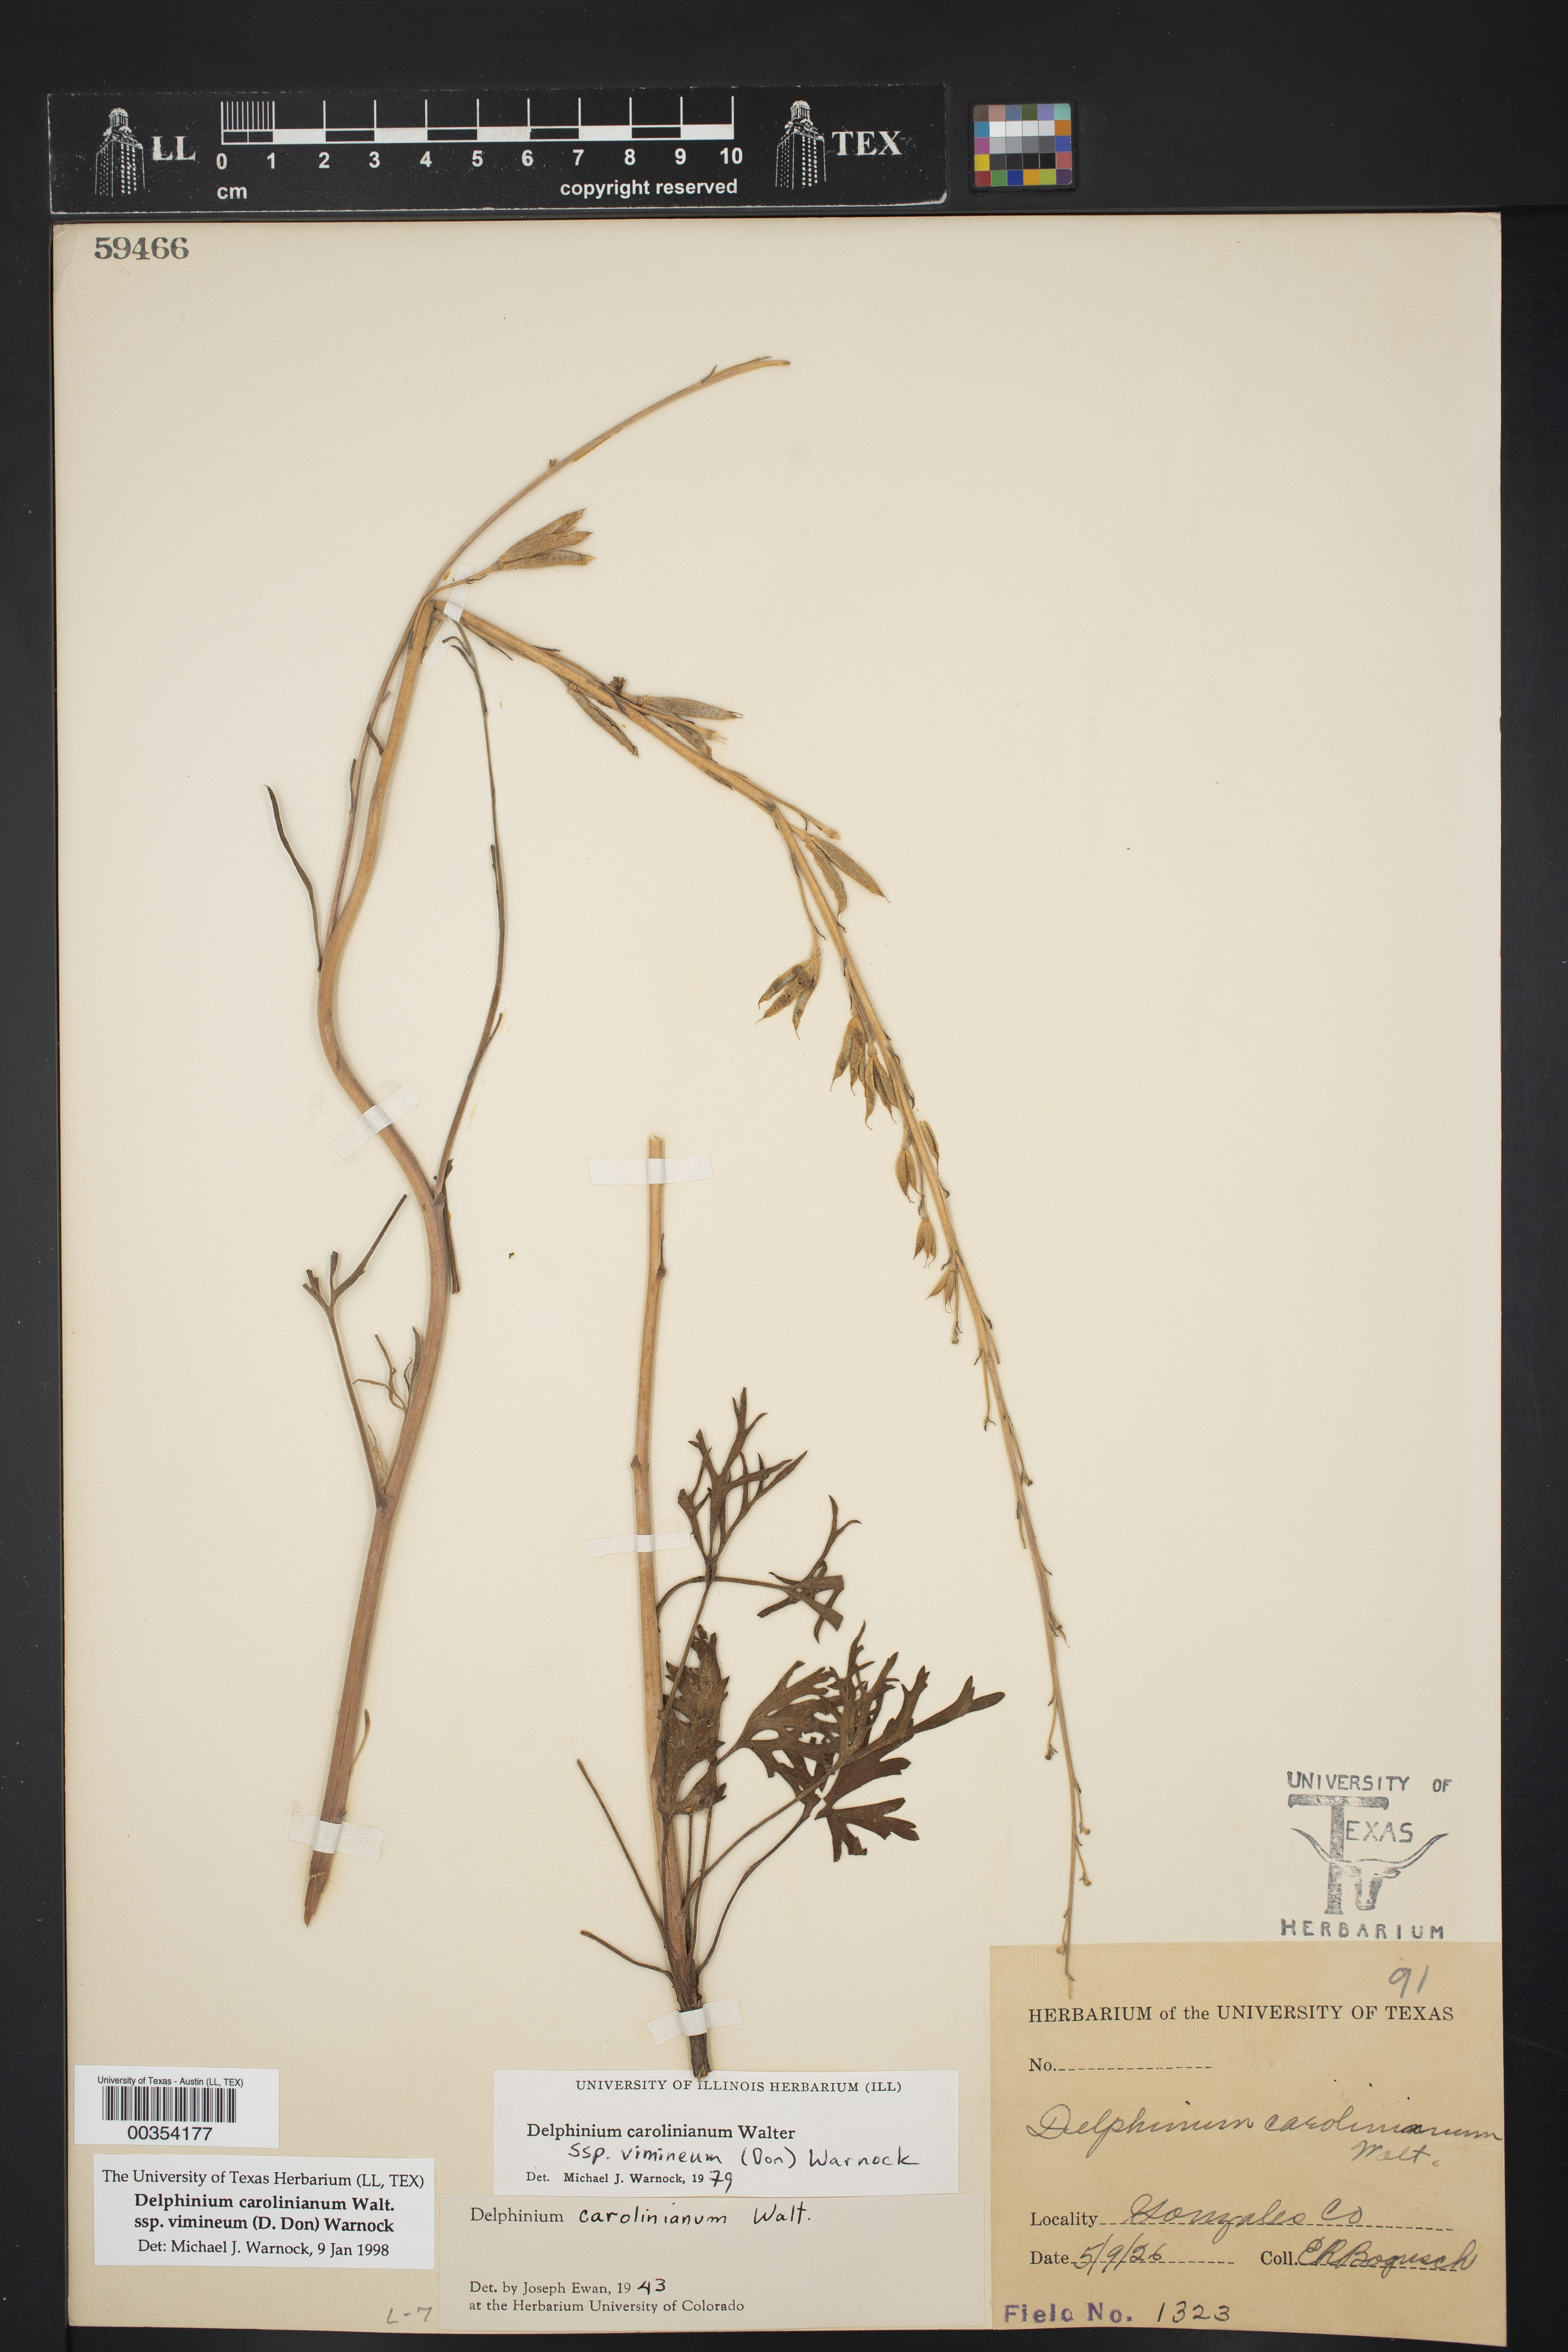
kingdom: Plantae
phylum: Tracheophyta
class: Magnoliopsida
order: Ranunculales
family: Ranunculaceae
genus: Delphinium
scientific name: Delphinium carolinianum
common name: Carolina larkspur
